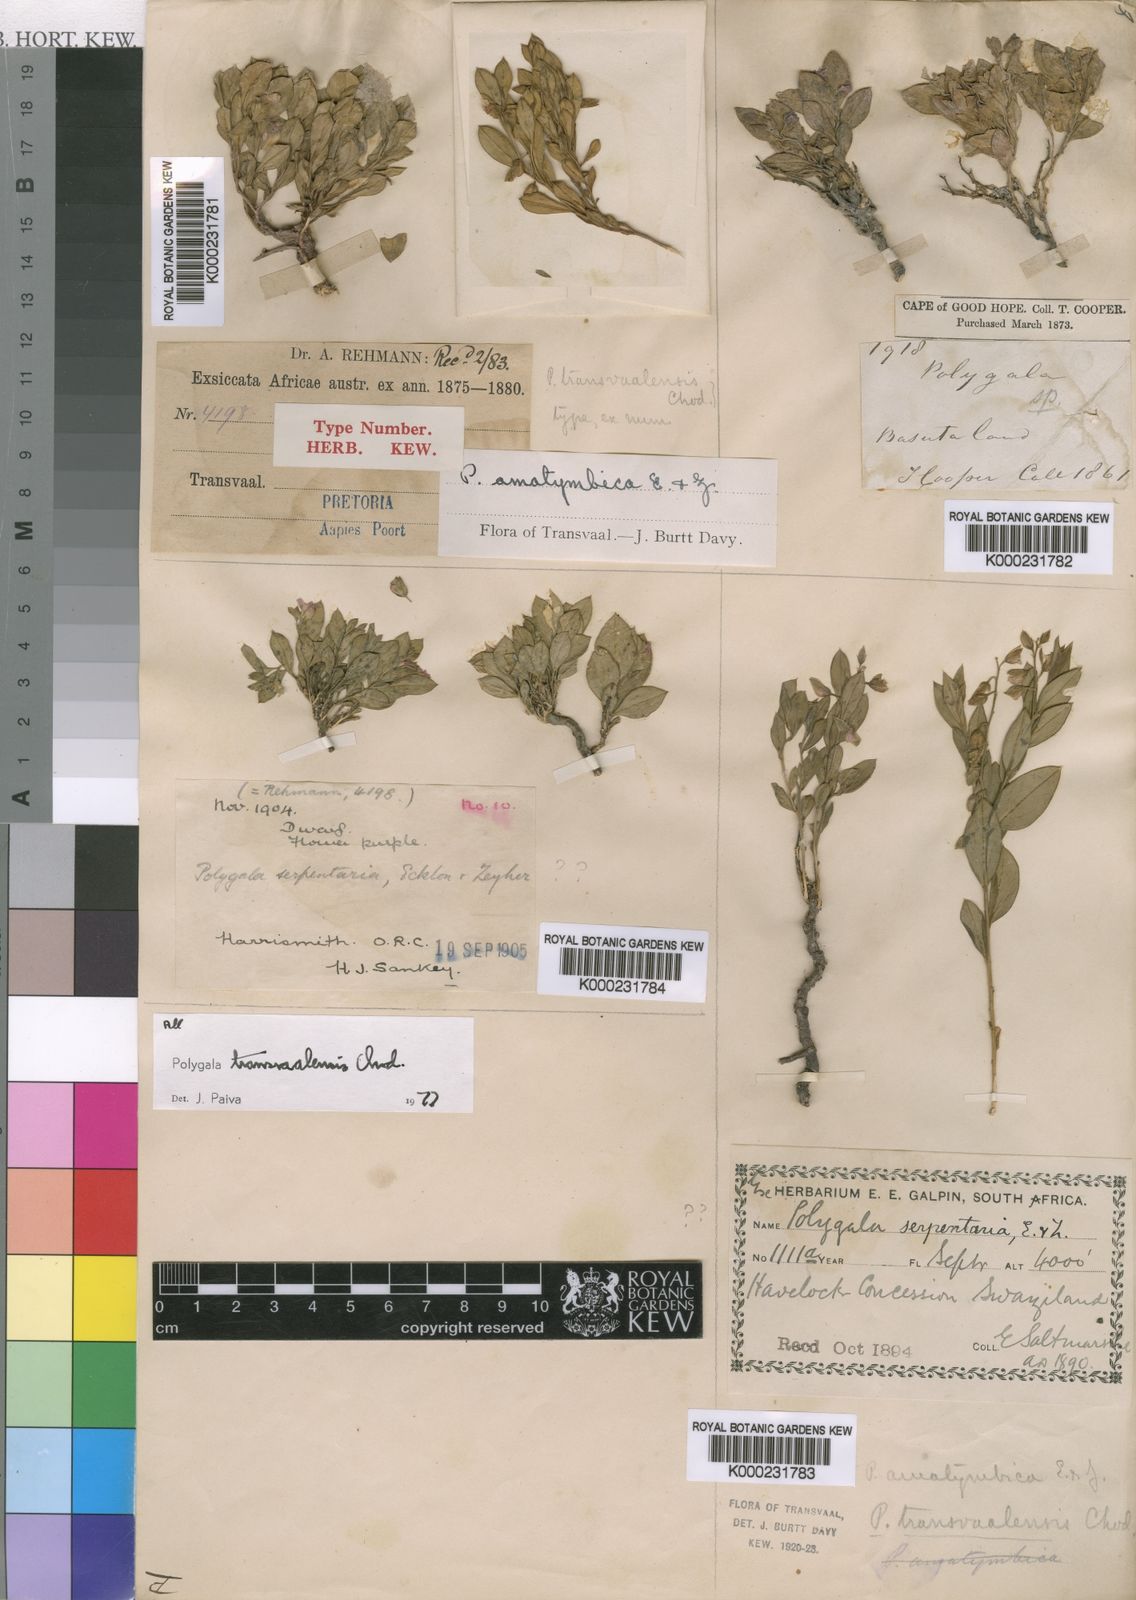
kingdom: Plantae
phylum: Tracheophyta
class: Magnoliopsida
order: Fabales
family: Polygalaceae
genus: Polygala
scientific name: Polygala transvaalensis
